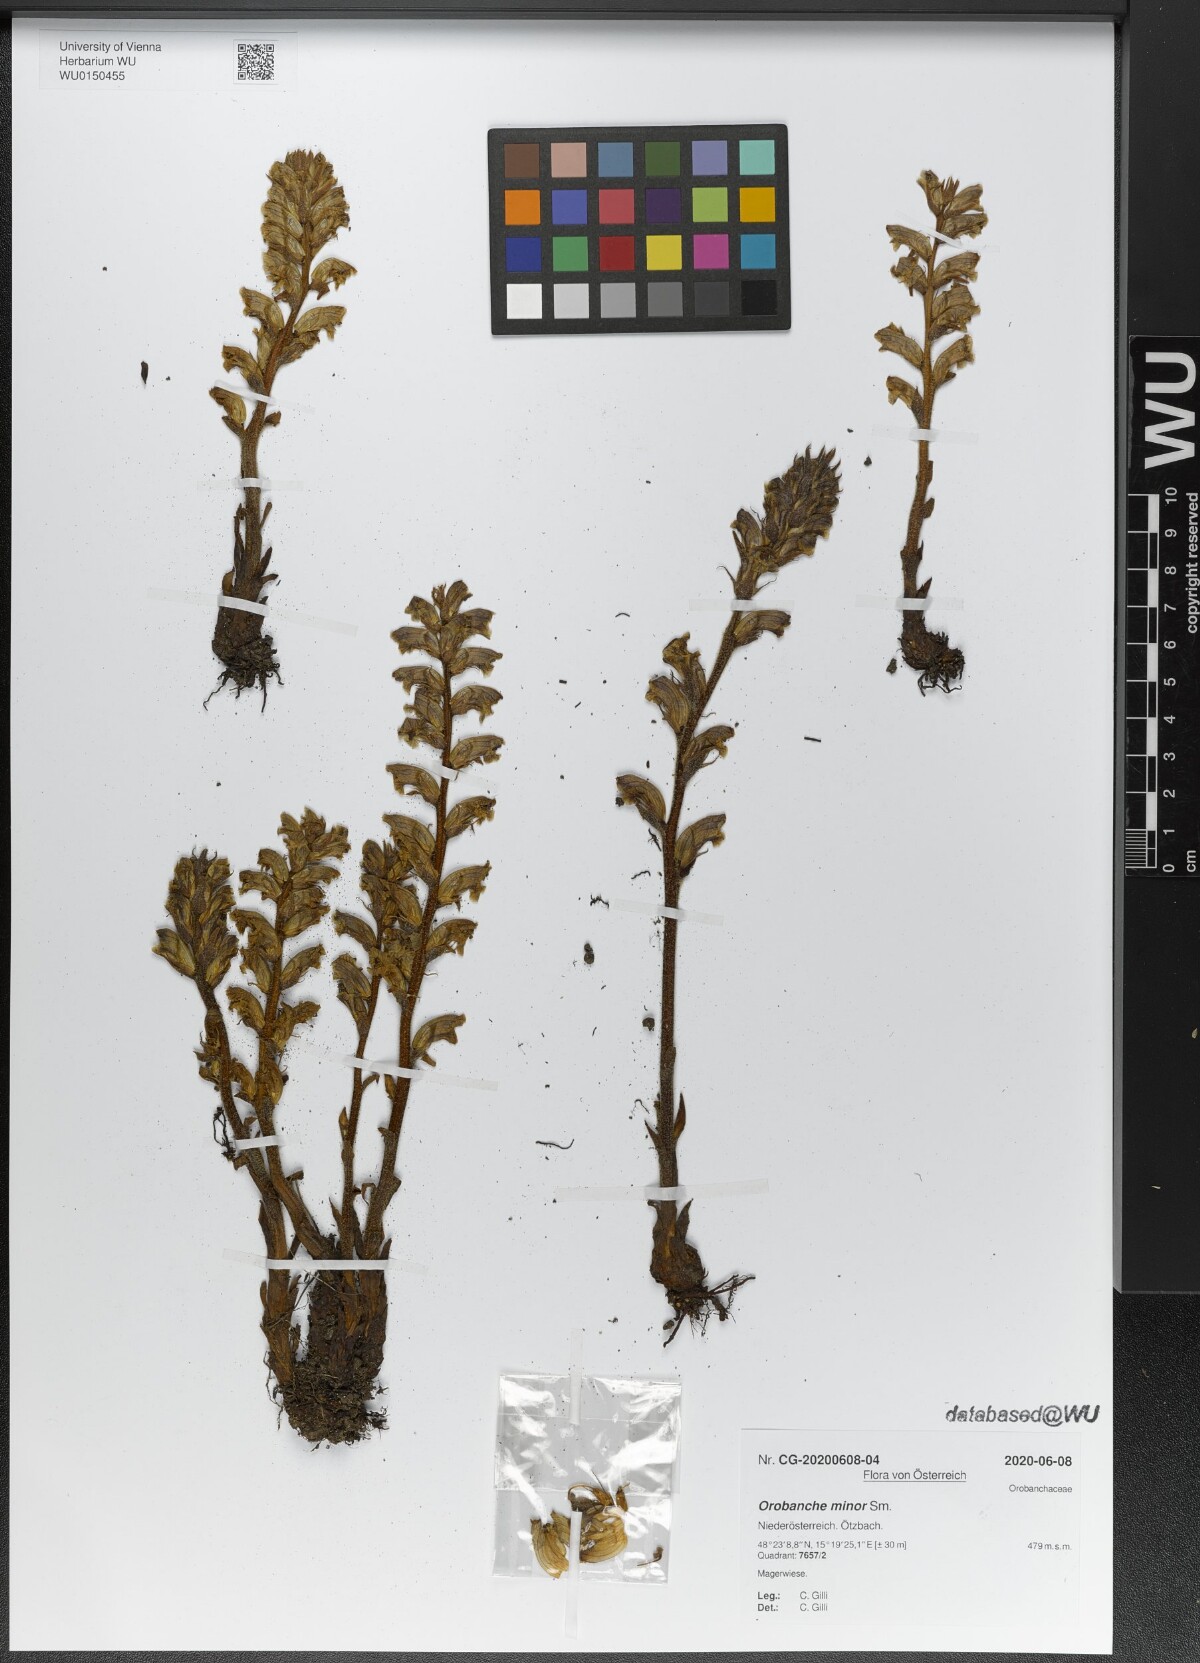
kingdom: Plantae
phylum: Tracheophyta
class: Magnoliopsida
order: Lamiales
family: Orobanchaceae
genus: Orobanche
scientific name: Orobanche minor
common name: Common broomrape
